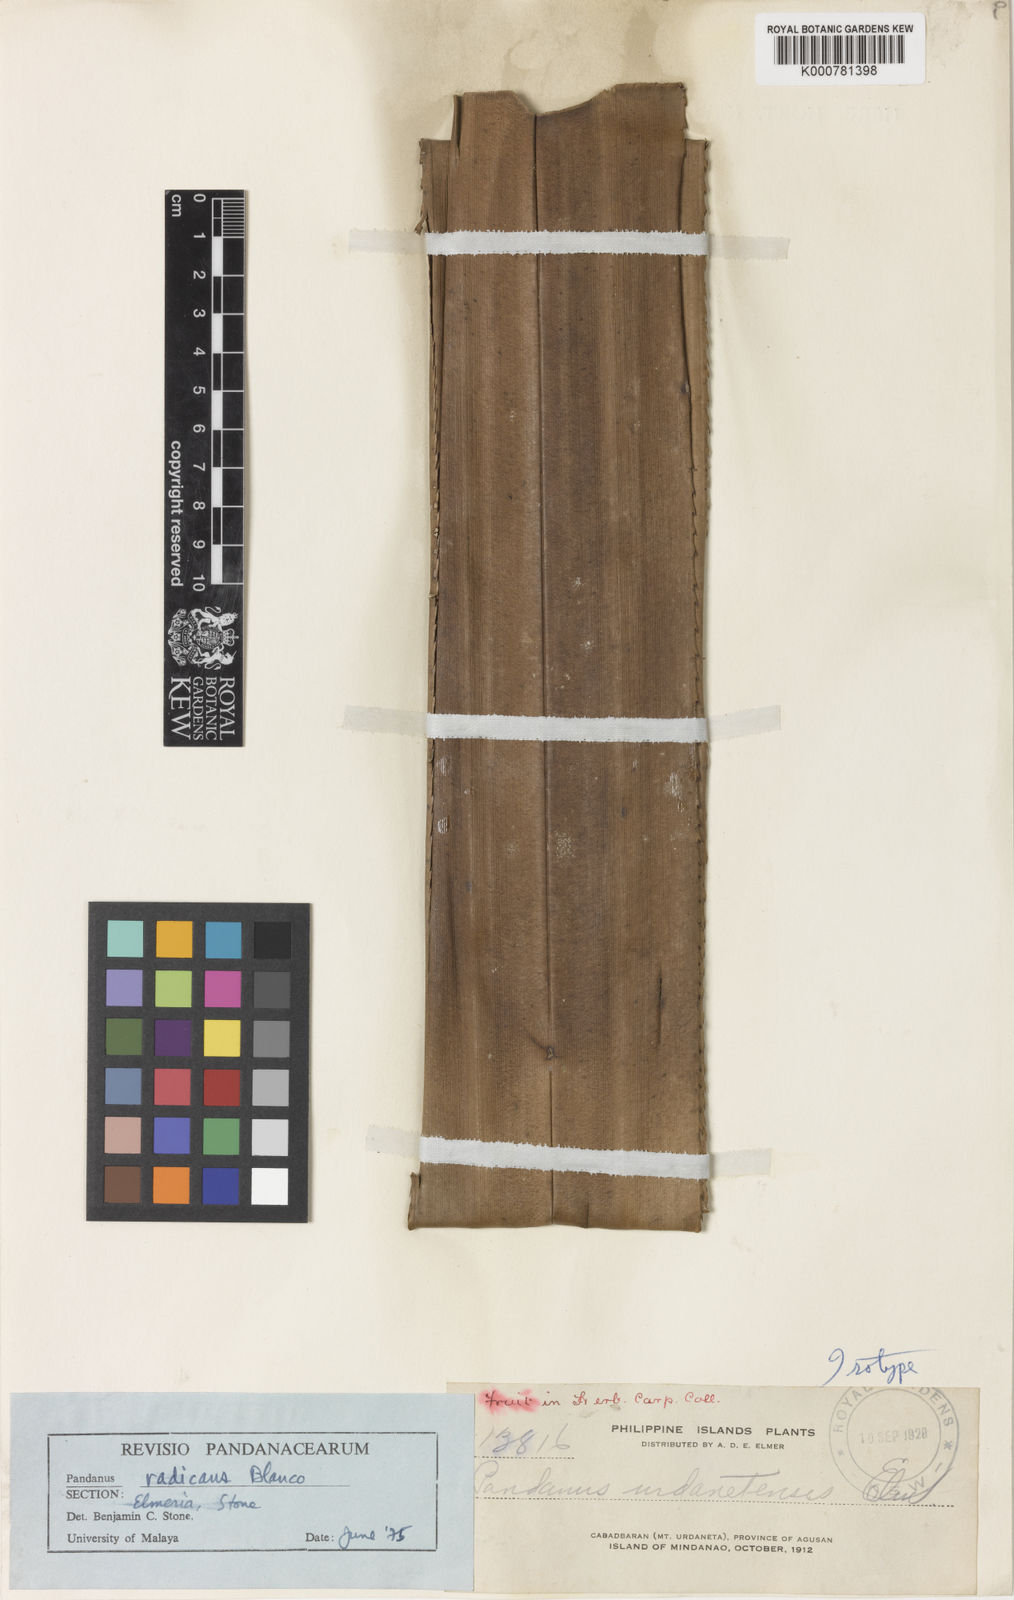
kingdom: Plantae
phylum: Tracheophyta
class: Liliopsida
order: Pandanales
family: Pandanaceae
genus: Pandanus
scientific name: Pandanus
